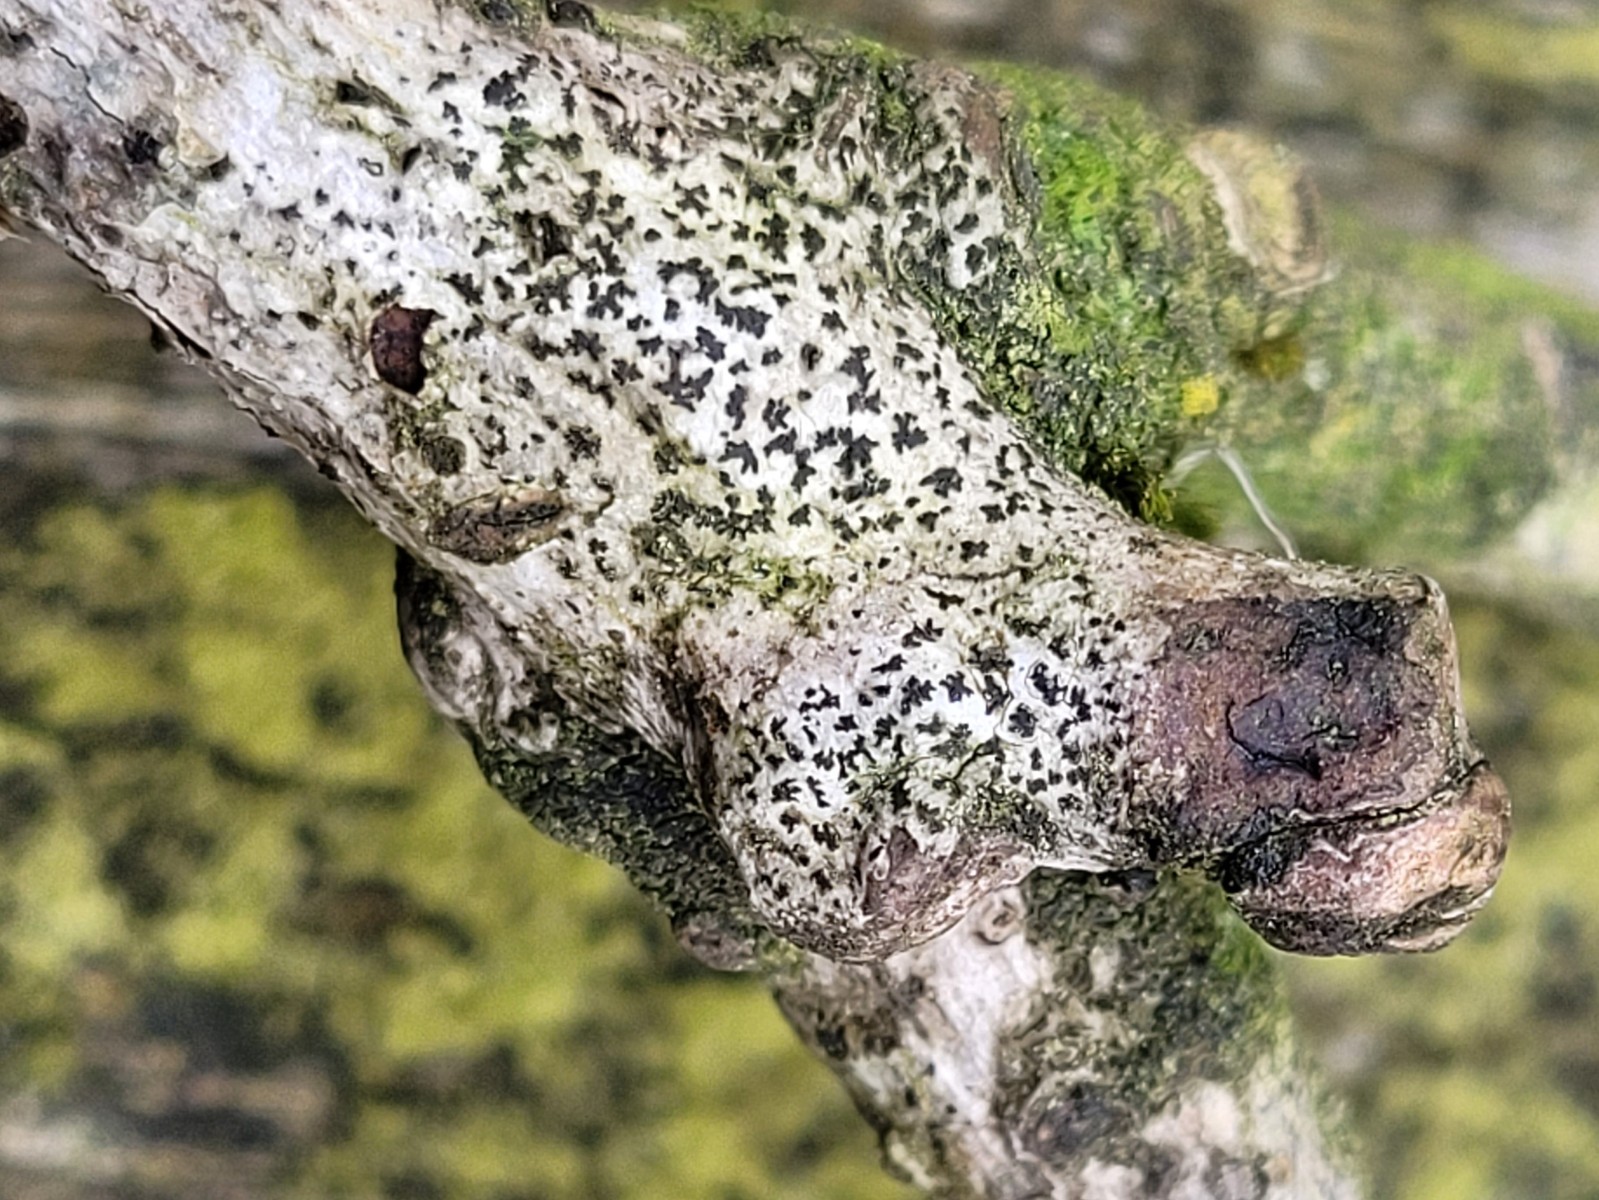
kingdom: Fungi
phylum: Ascomycota
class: Arthoniomycetes
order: Arthoniales
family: Arthoniaceae
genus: Arthonia
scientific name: Arthonia radiata
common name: stjerne-pletlav
